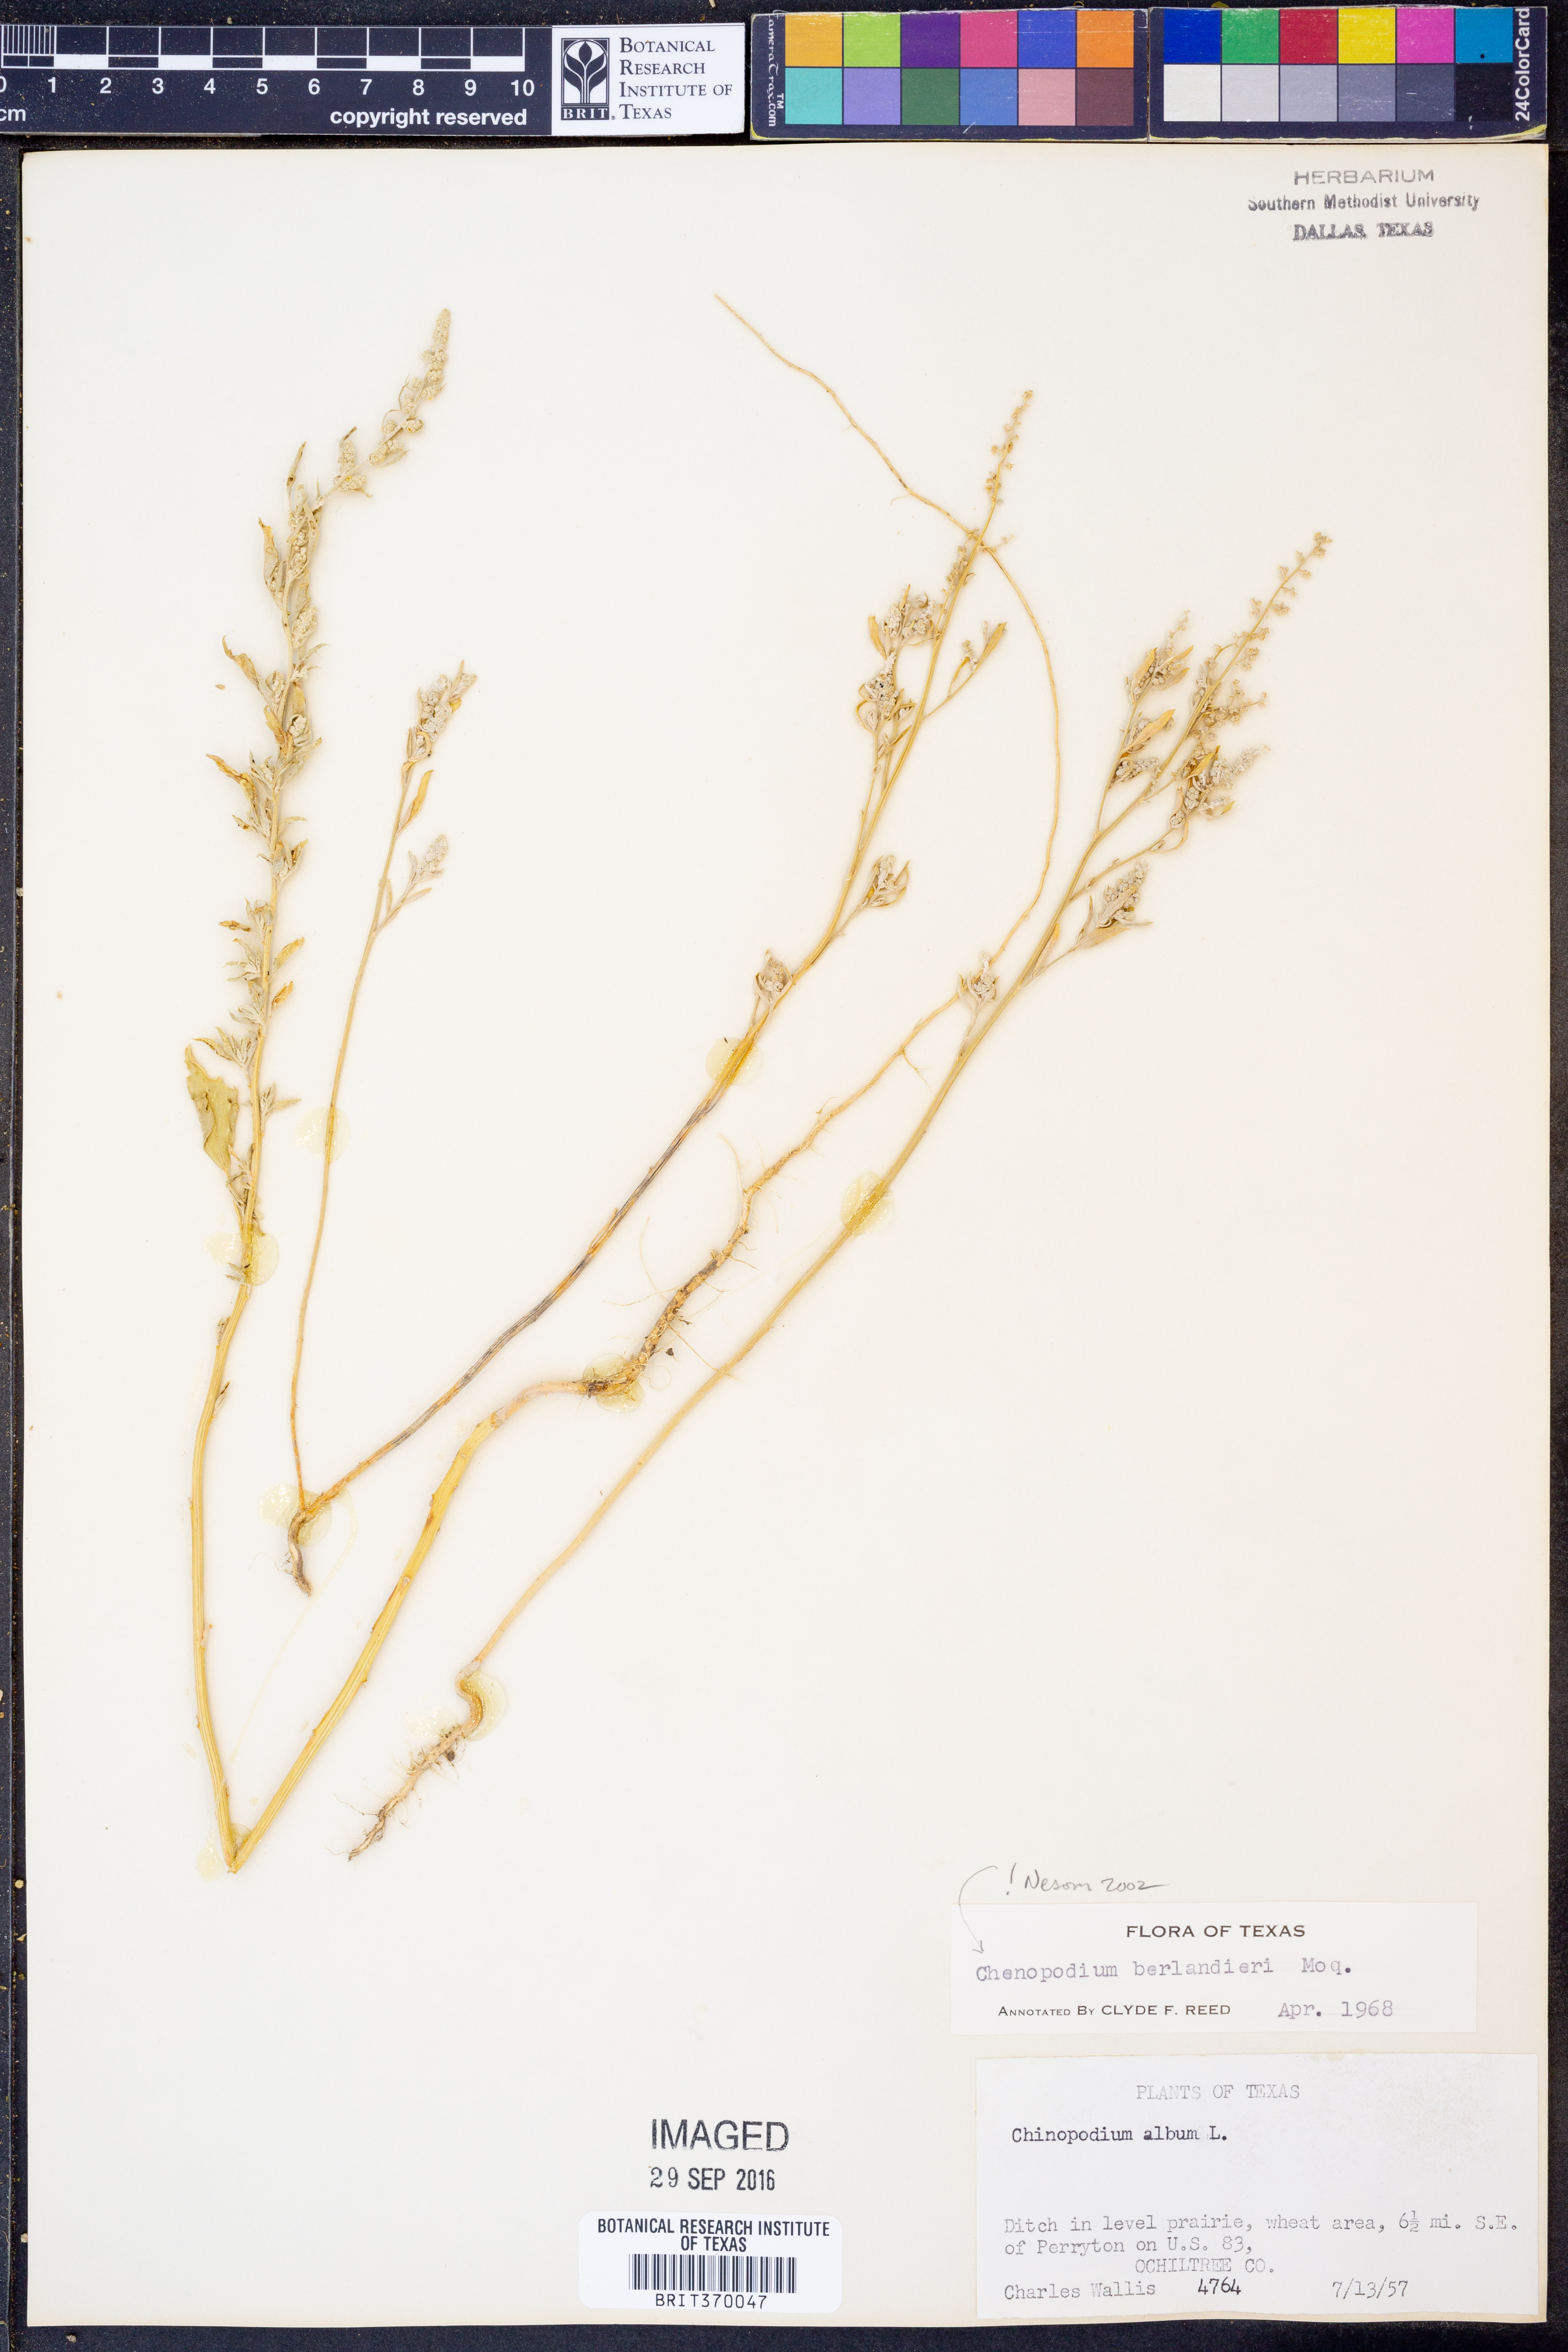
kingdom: Plantae
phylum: Tracheophyta
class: Magnoliopsida
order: Caryophyllales
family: Amaranthaceae
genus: Chenopodium
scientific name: Chenopodium berlandieri
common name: Pit-seed goosefoot
